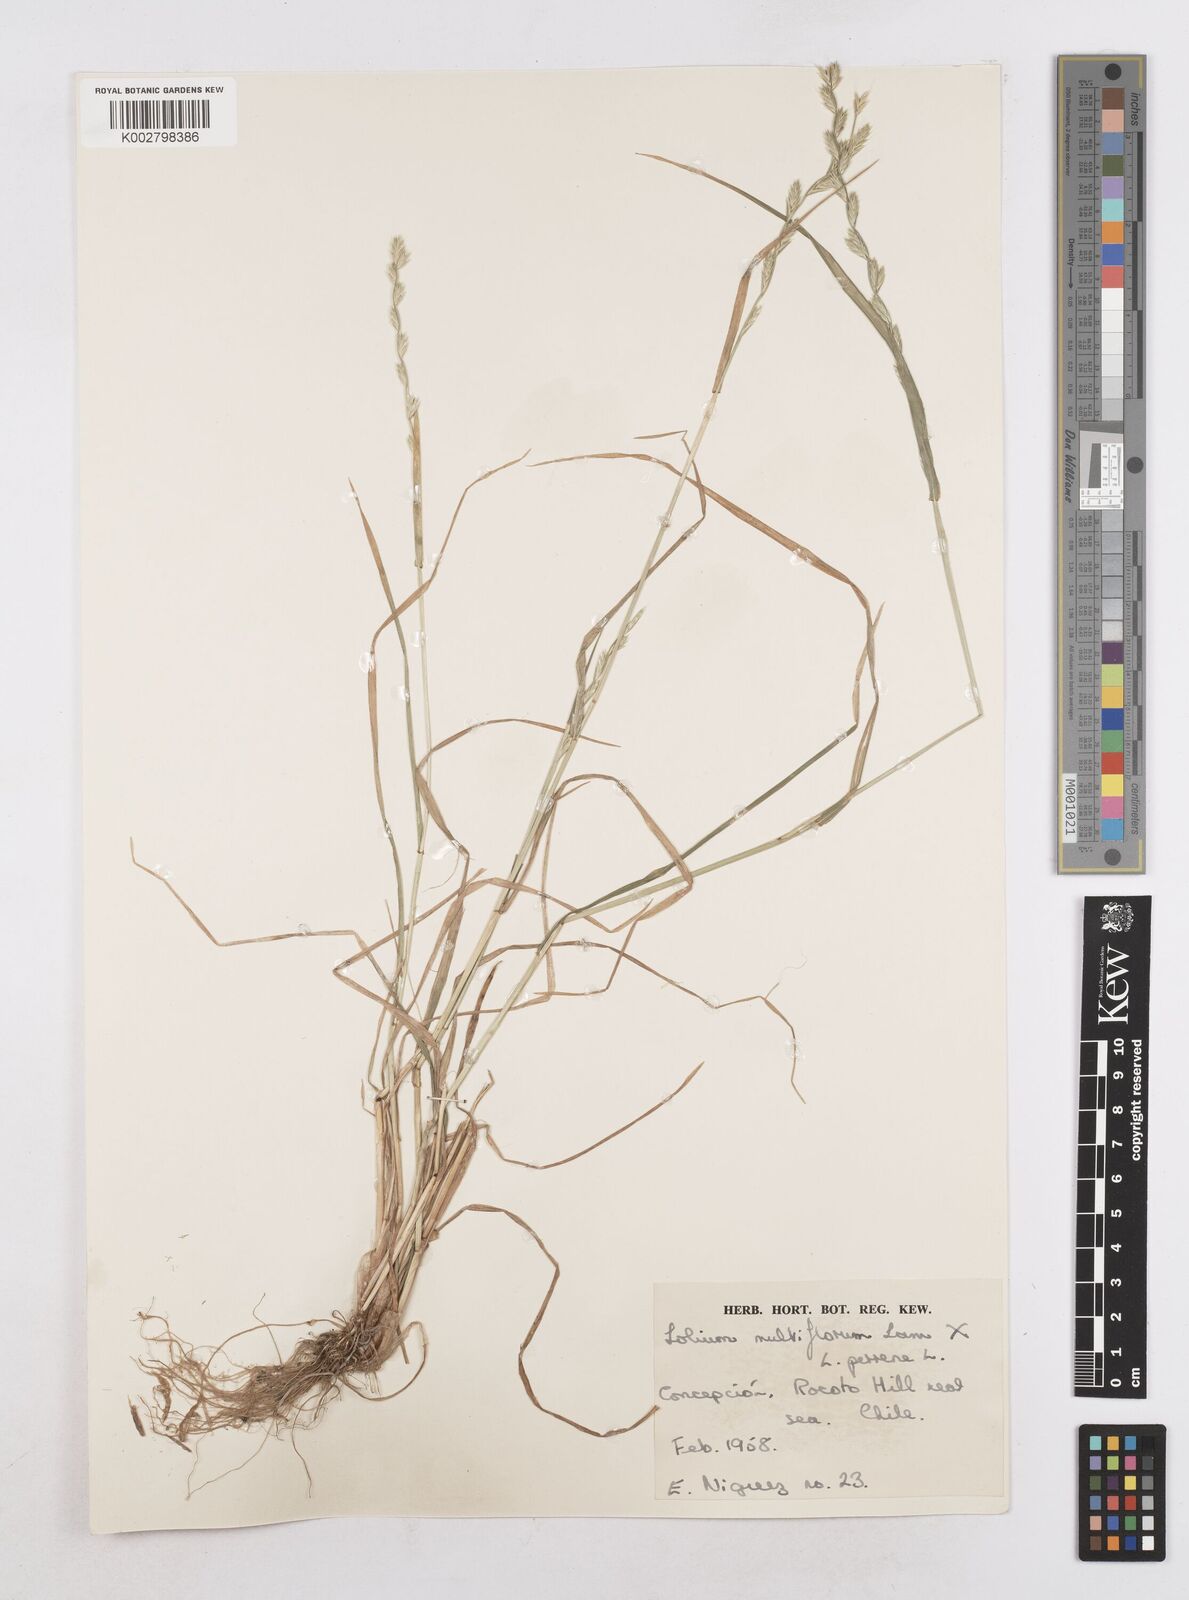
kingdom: Plantae
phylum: Tracheophyta
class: Liliopsida
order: Poales
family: Poaceae
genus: Lolium
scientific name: Lolium multiflorum
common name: Annual ryegrass
